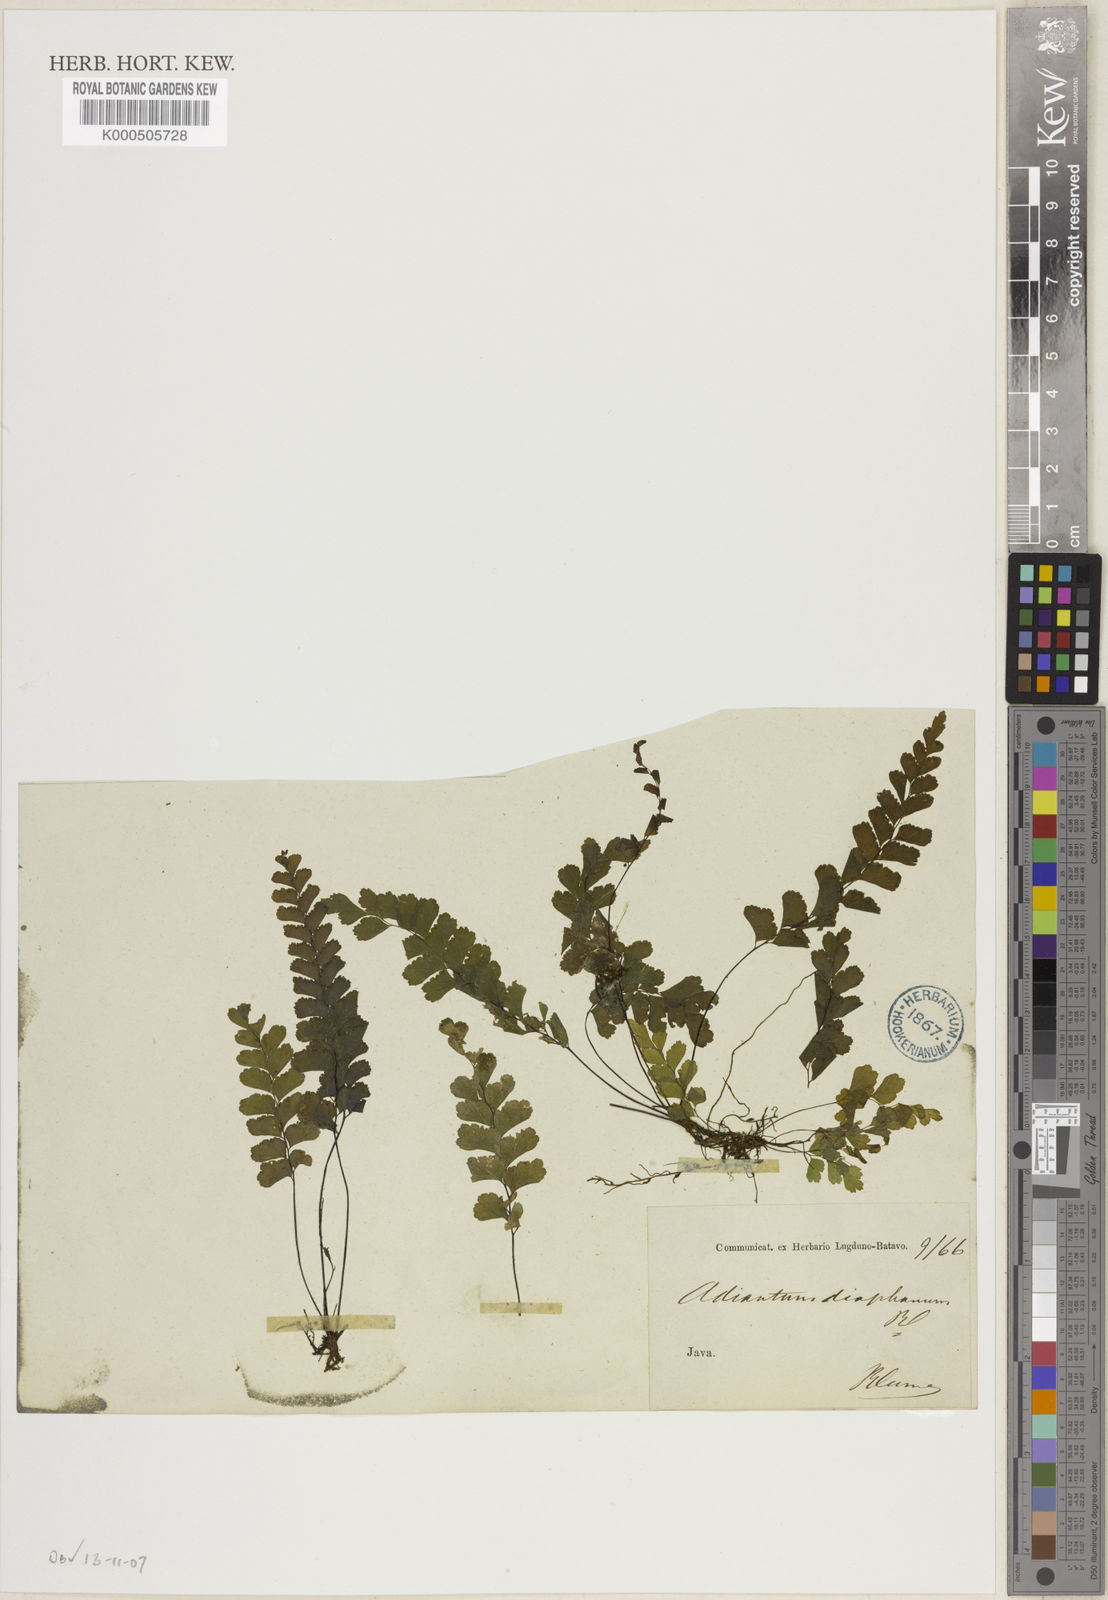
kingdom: Plantae
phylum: Tracheophyta
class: Polypodiopsida
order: Polypodiales
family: Pteridaceae
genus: Adiantum
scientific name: Adiantum diaphanum
